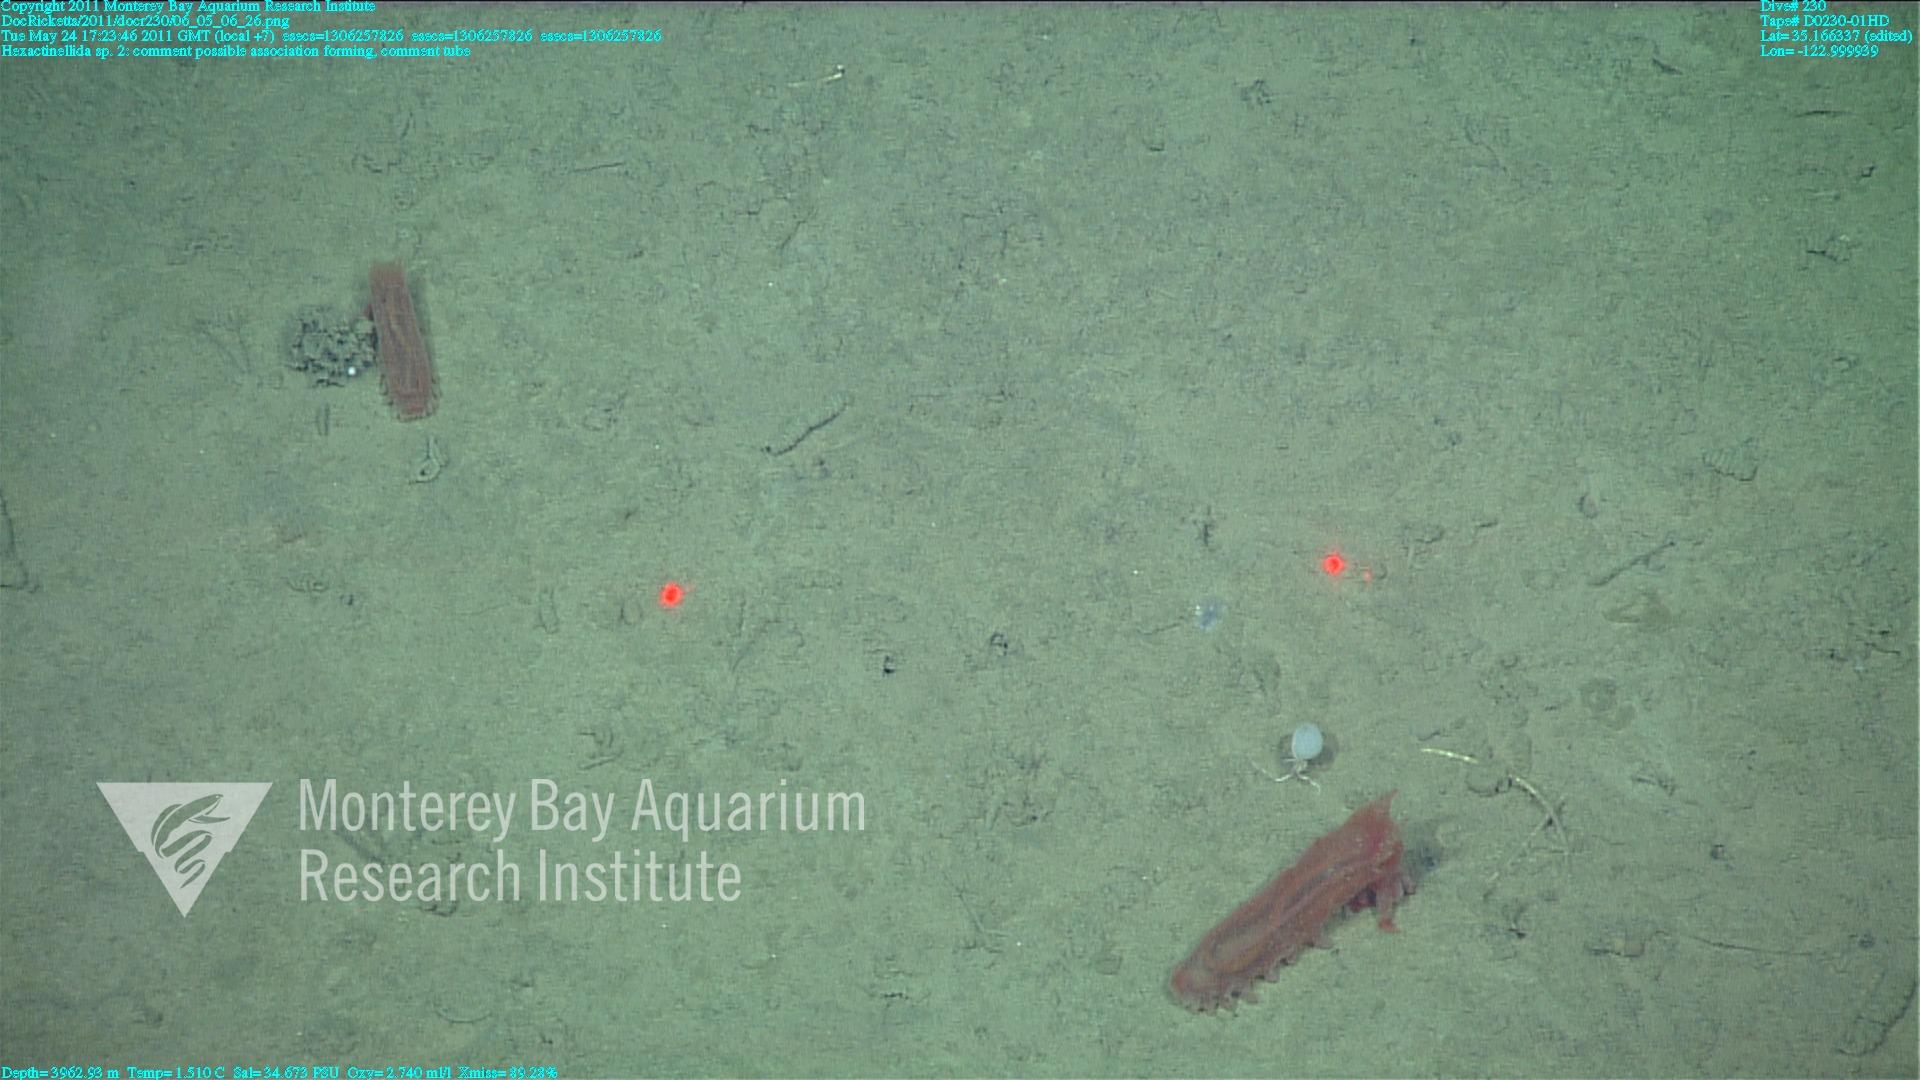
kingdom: Animalia
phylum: Porifera
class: Hexactinellida
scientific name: Hexactinellida
